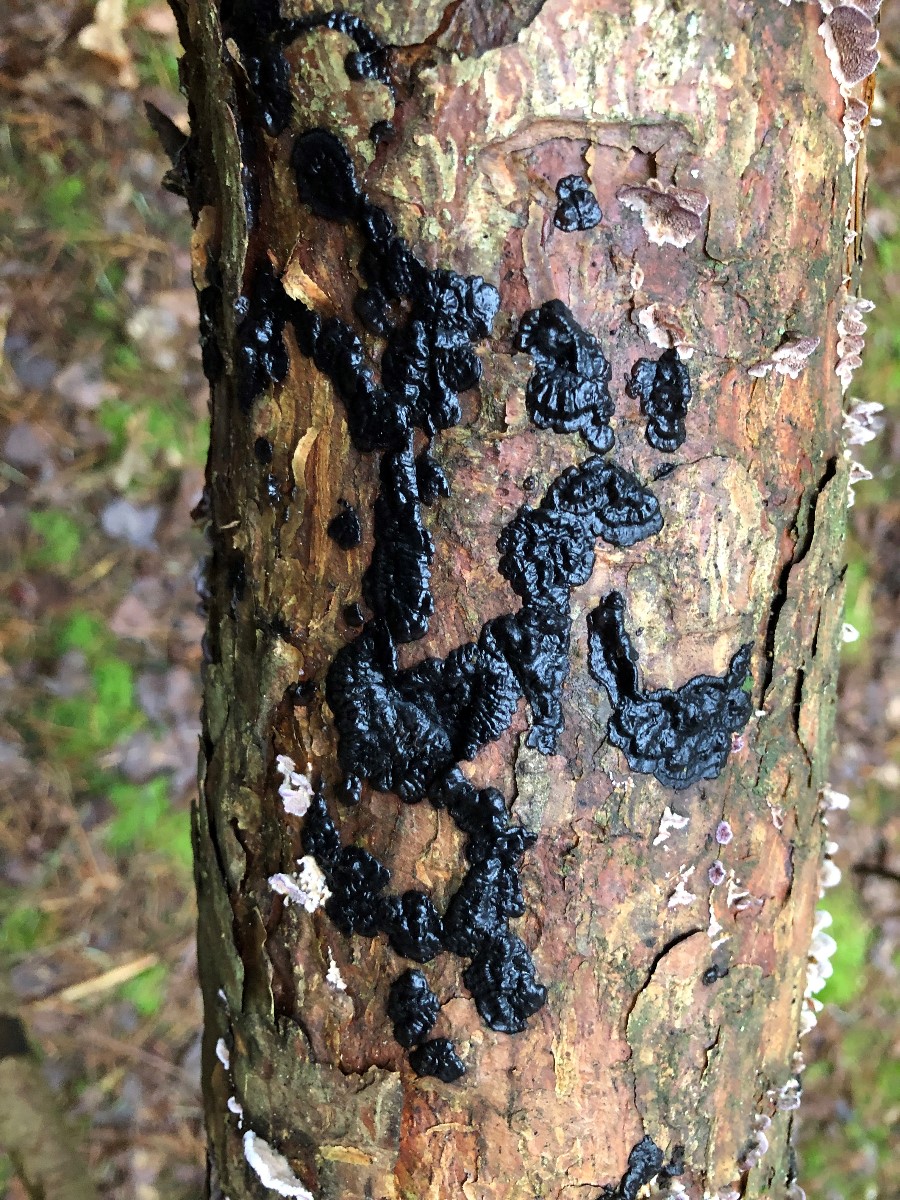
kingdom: Fungi
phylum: Basidiomycota
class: Agaricomycetes
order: Auriculariales
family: Auriculariaceae
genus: Exidia
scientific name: Exidia pithya
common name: gran-bævretop
